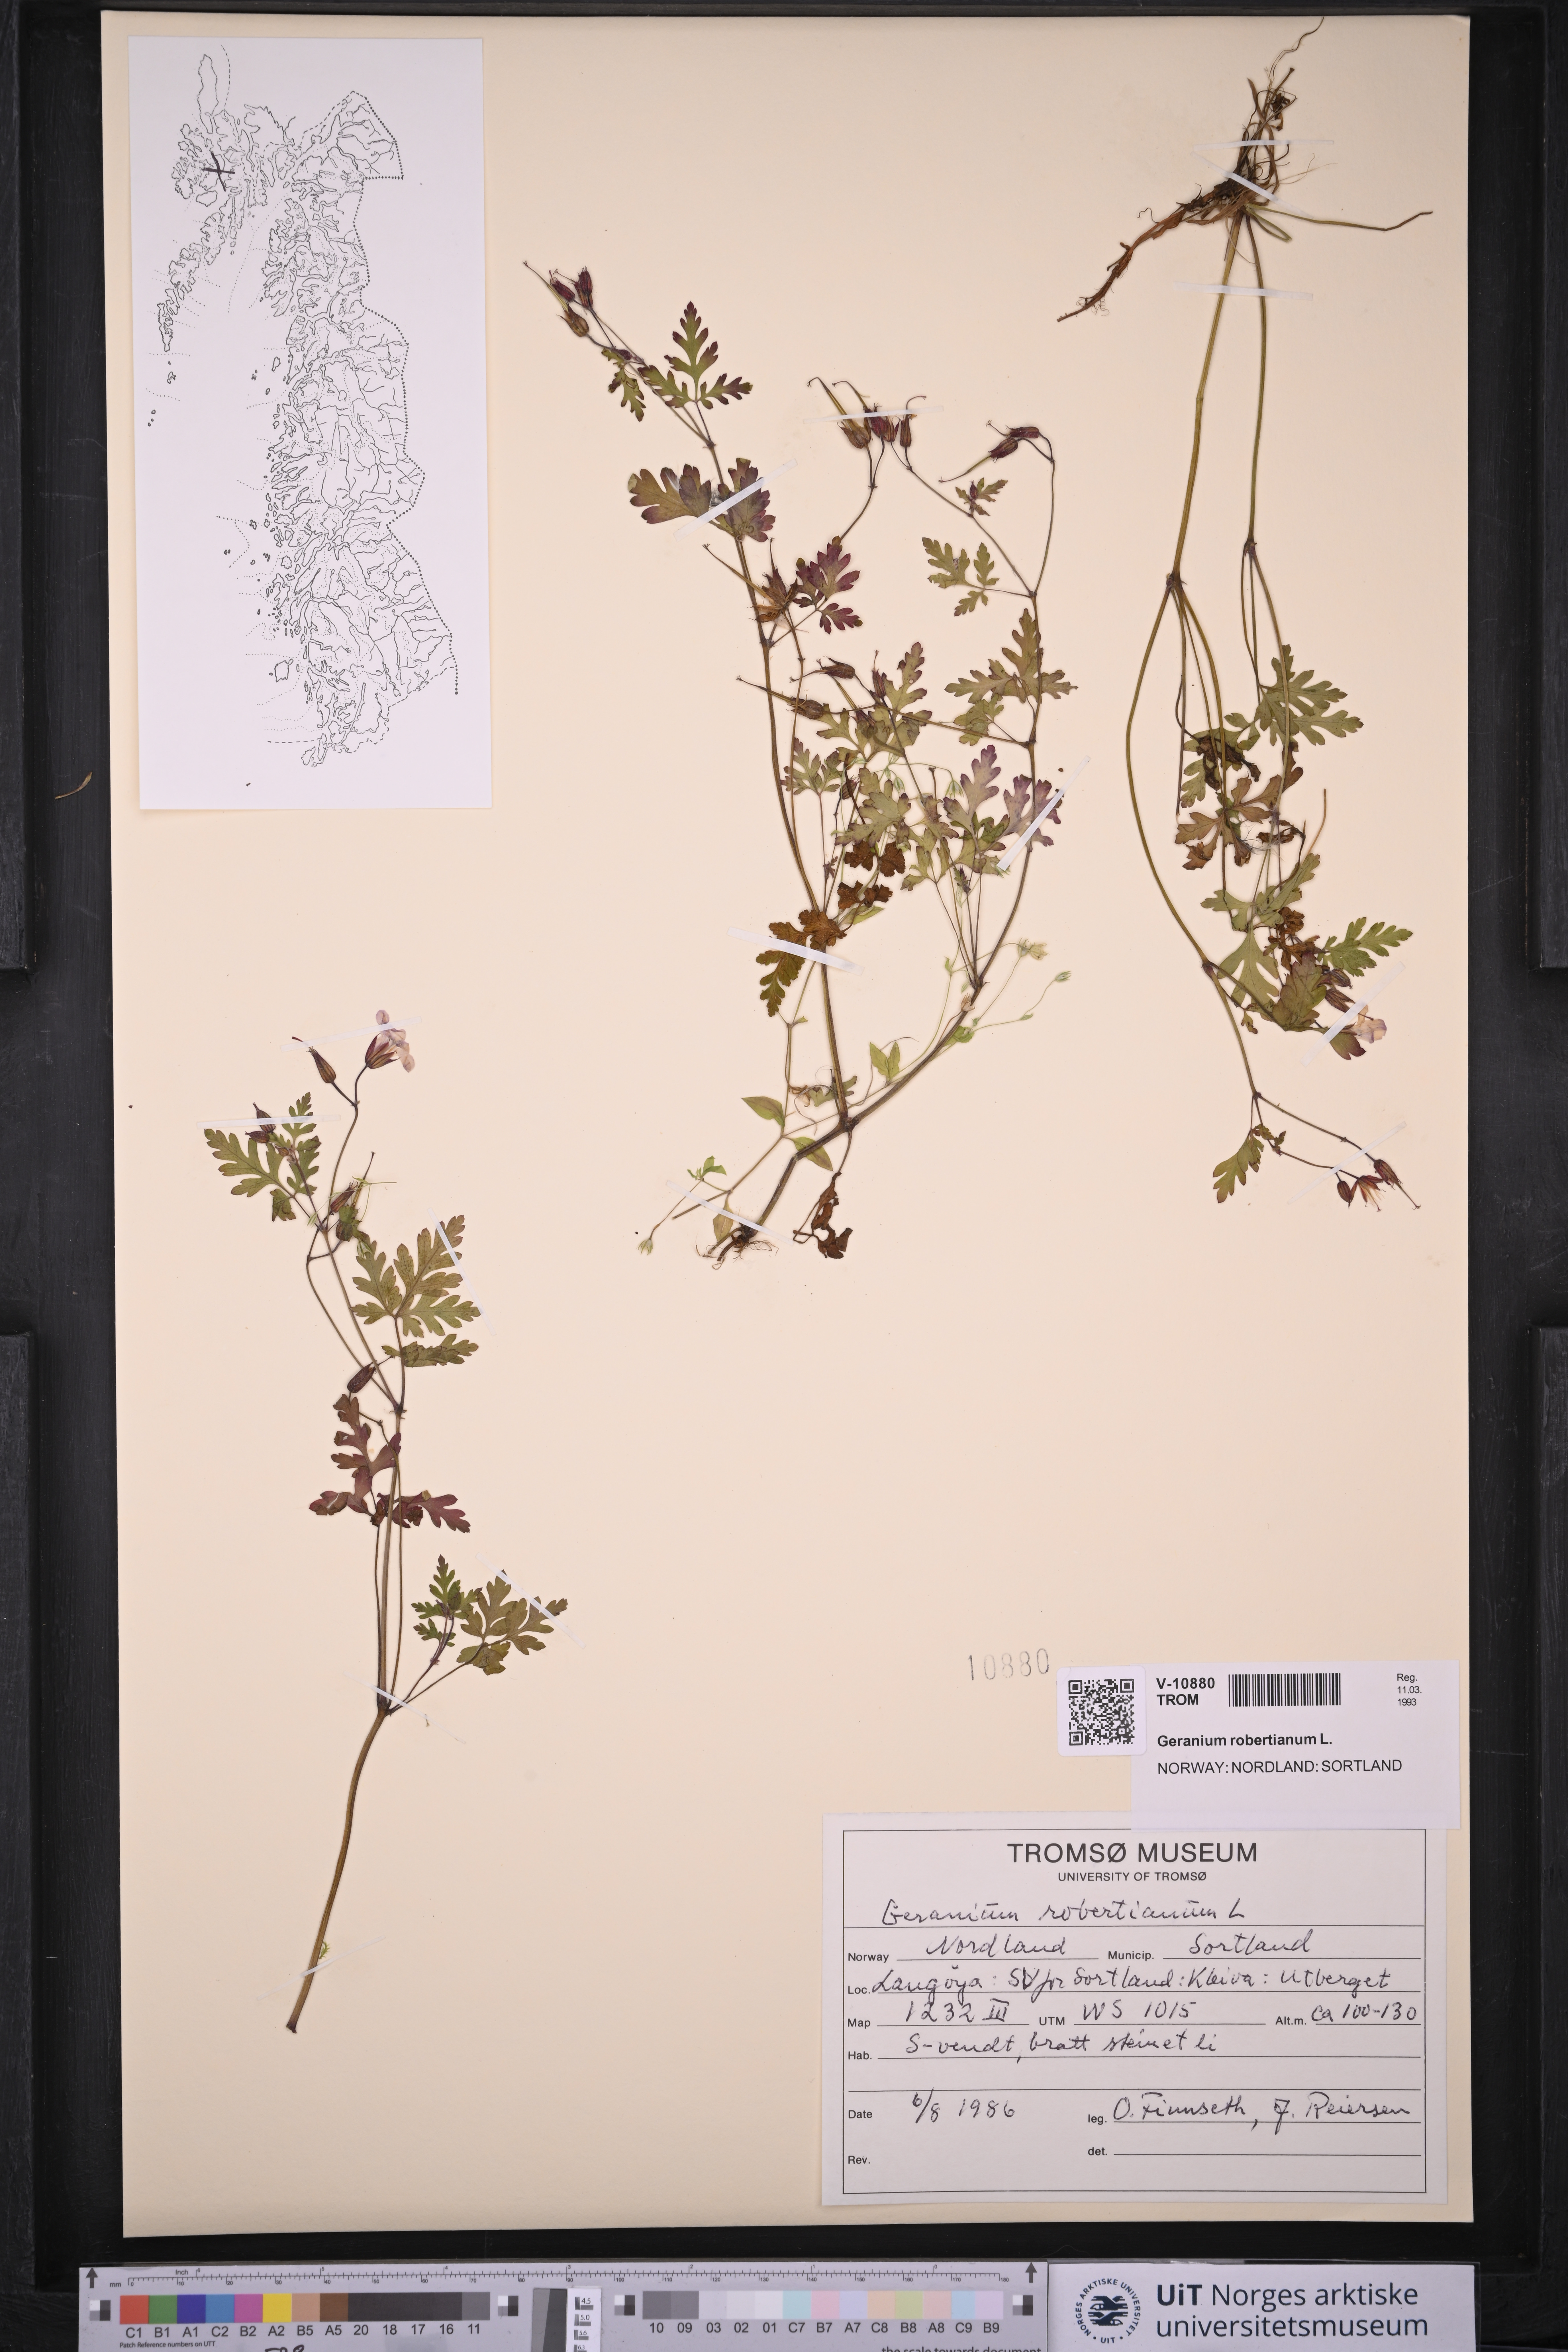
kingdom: Plantae
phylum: Tracheophyta
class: Magnoliopsida
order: Geraniales
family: Geraniaceae
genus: Geranium
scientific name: Geranium robertianum
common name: Herb-robert
